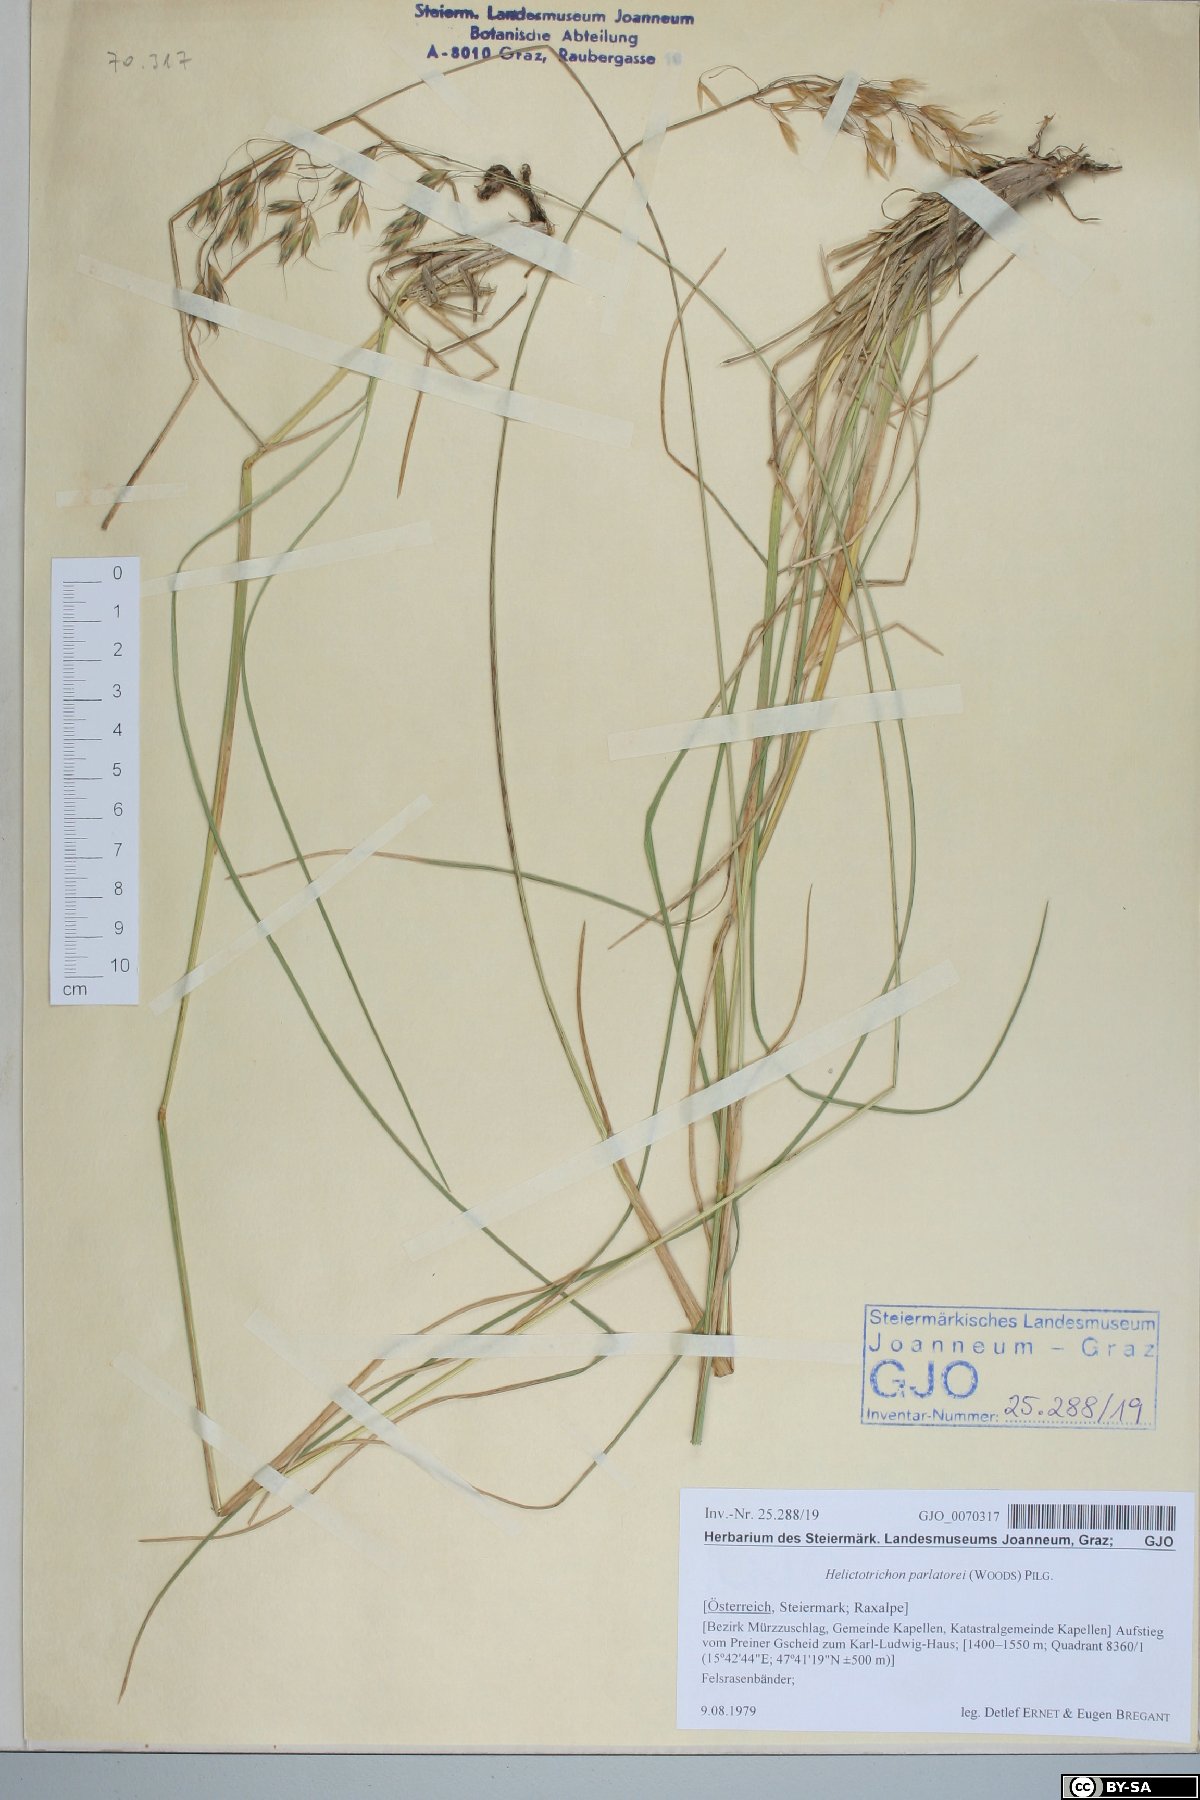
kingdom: Plantae
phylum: Tracheophyta
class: Liliopsida
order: Poales
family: Poaceae
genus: Helictotrichon
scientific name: Helictotrichon parlatorei
